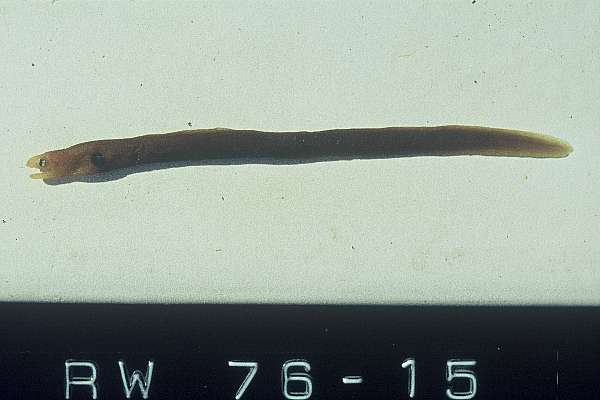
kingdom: Animalia
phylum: Chordata
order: Anguilliformes
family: Muraenidae
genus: Gymnothorax
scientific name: Gymnothorax melatremus
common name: Dwarf moray
